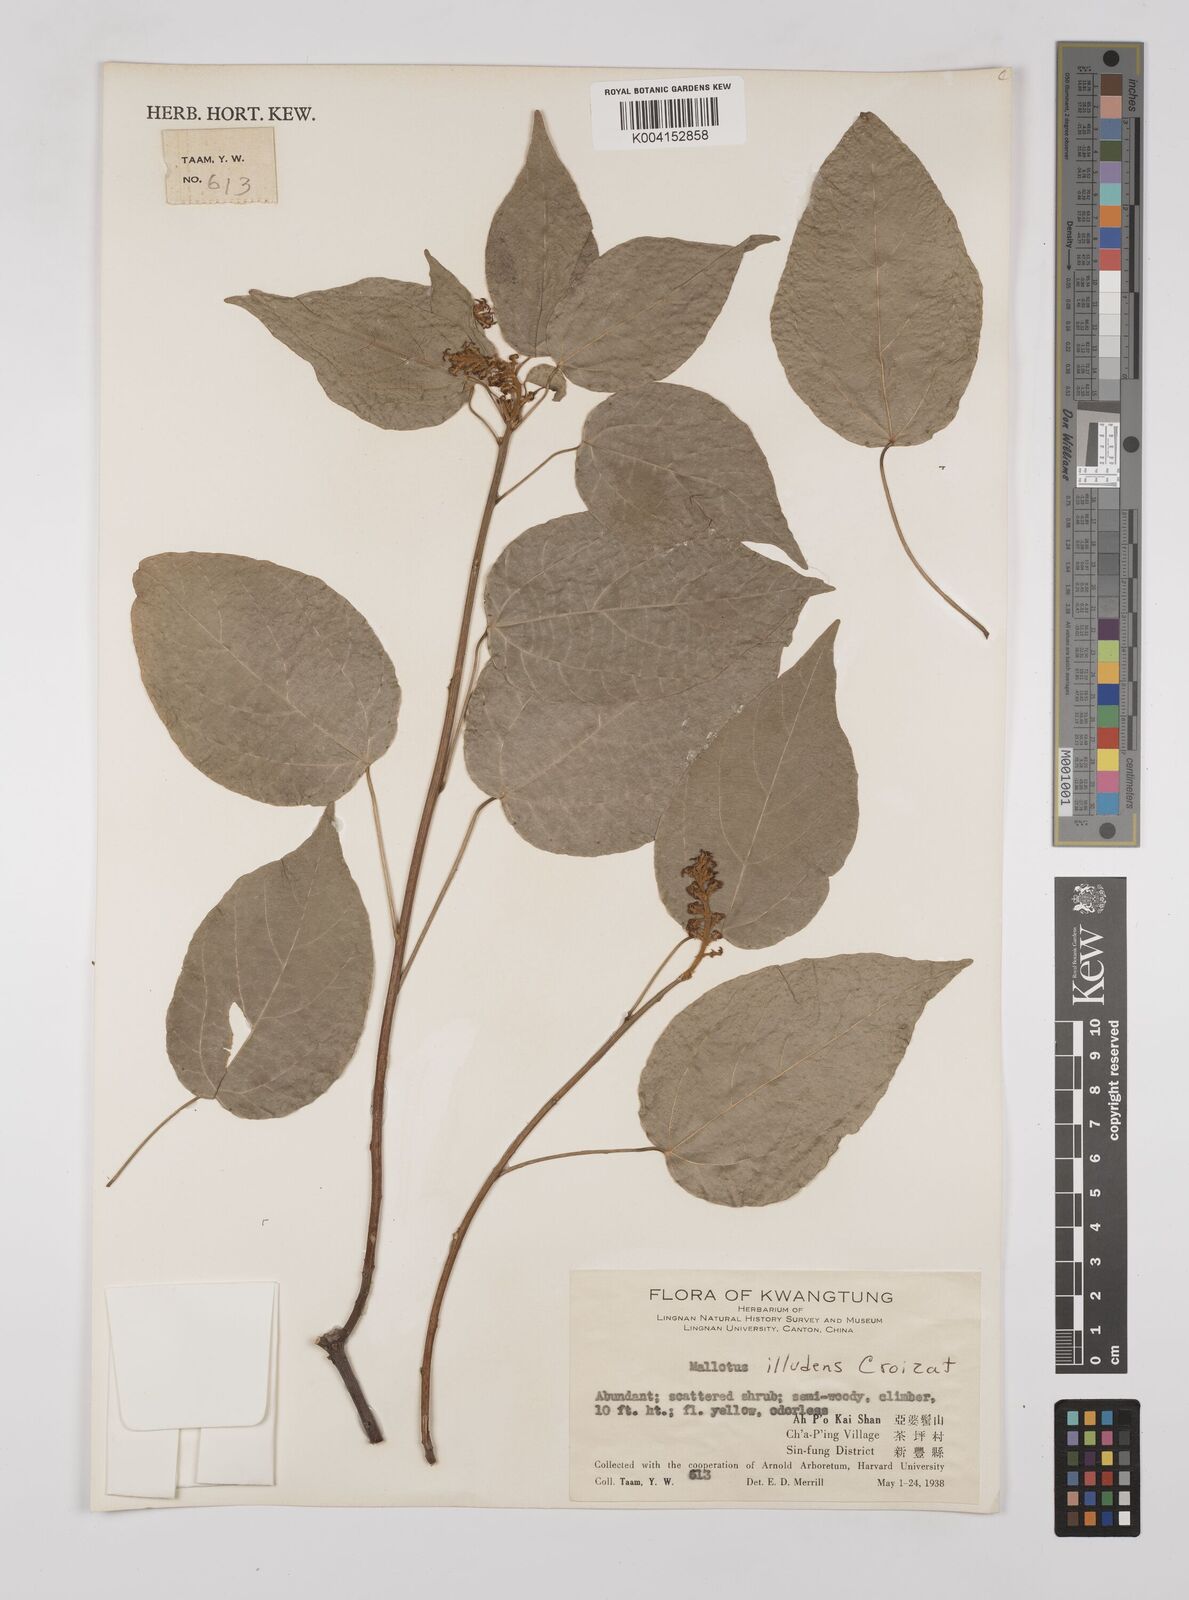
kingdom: Plantae
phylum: Tracheophyta
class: Magnoliopsida
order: Malpighiales
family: Euphorbiaceae
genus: Mallotus
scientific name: Mallotus illudens
